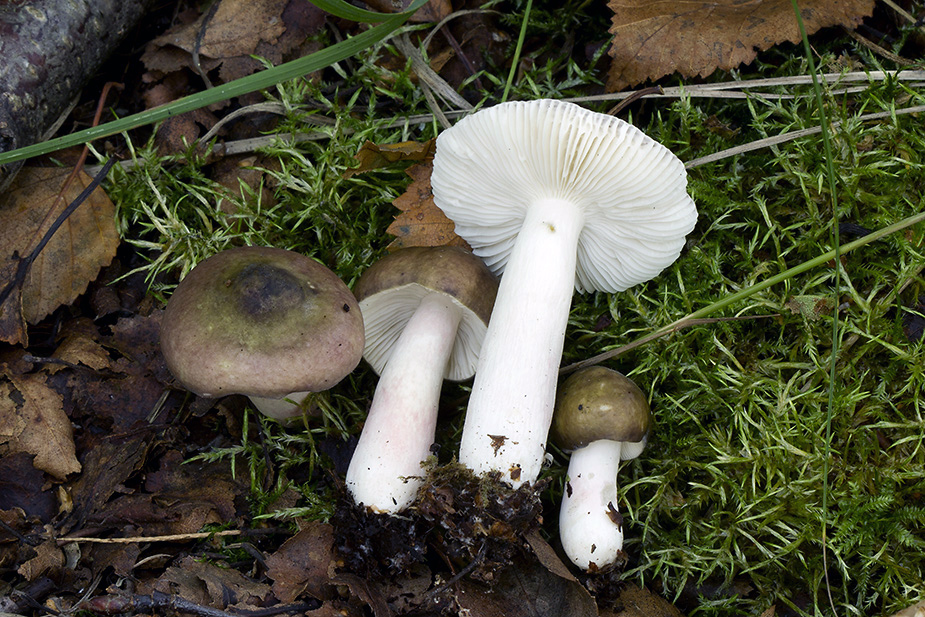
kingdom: Fungi
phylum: Basidiomycota
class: Agaricomycetes
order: Russulales
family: Russulaceae
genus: Russula
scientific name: Russula gracillima
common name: slank skørhat
